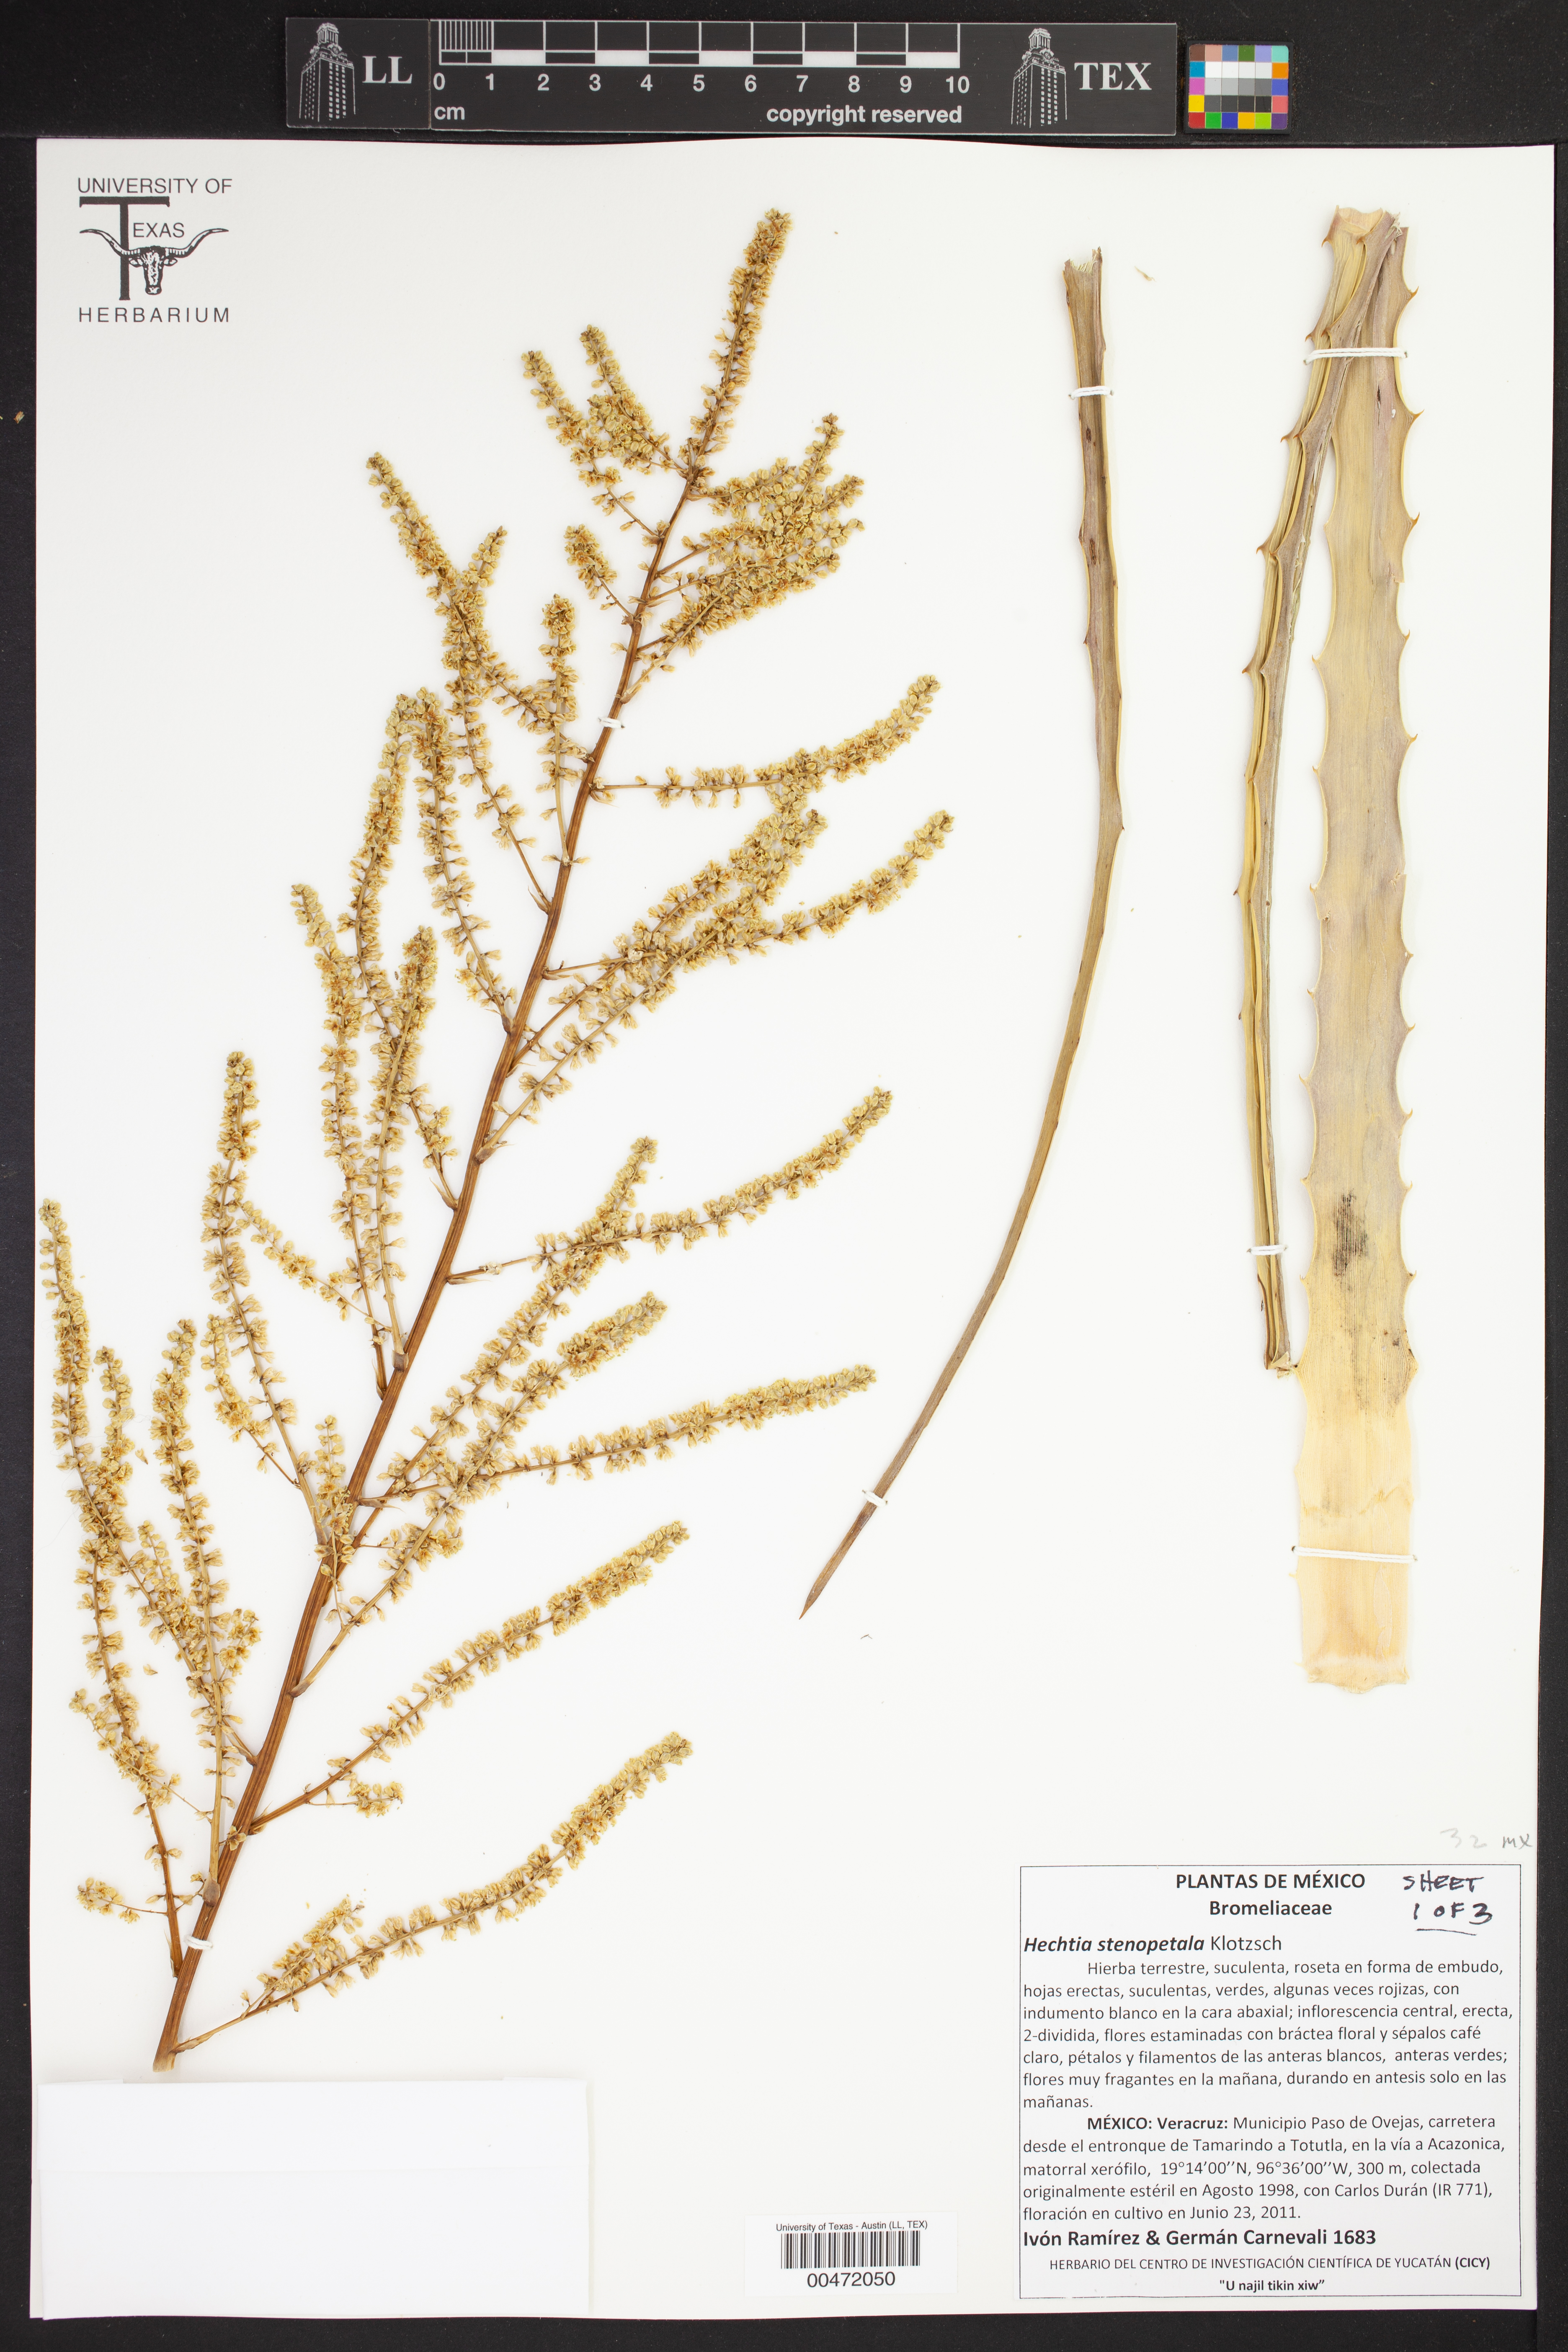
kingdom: Plantae
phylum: Tracheophyta
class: Liliopsida
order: Poales
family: Bromeliaceae
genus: Hechtia
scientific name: Hechtia stenopetala
